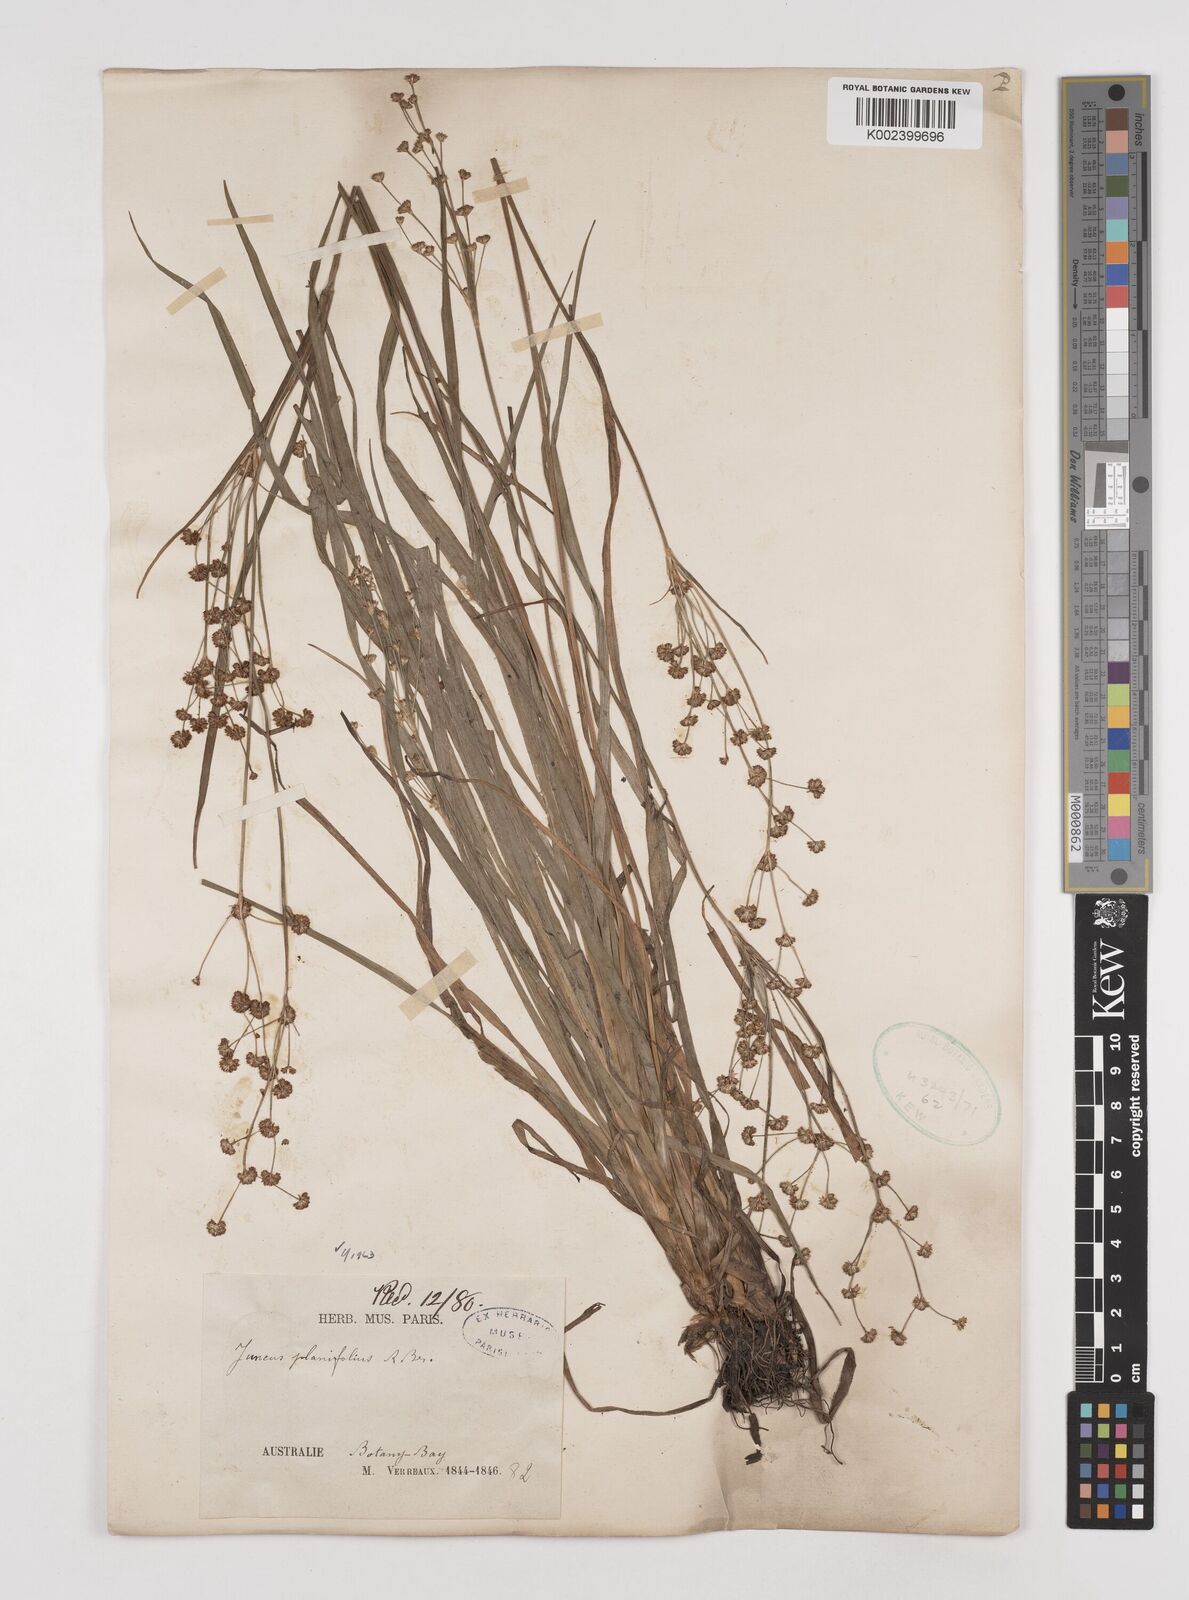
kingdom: Plantae
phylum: Tracheophyta
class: Liliopsida
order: Poales
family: Juncaceae
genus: Juncus
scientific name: Juncus planifolius
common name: Broadleaf rush
